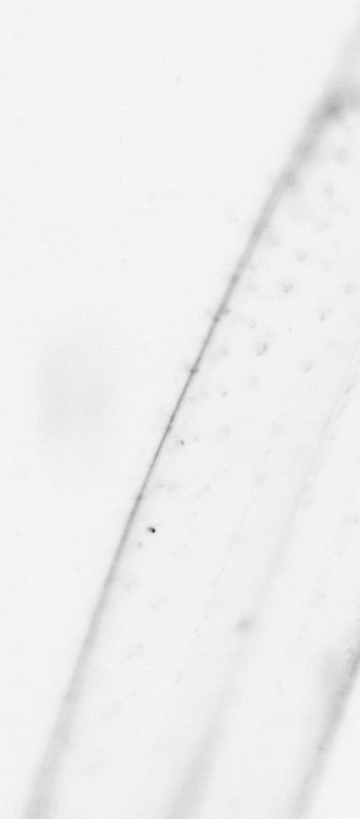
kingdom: Animalia
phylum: Chaetognatha
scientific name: Chaetognatha
